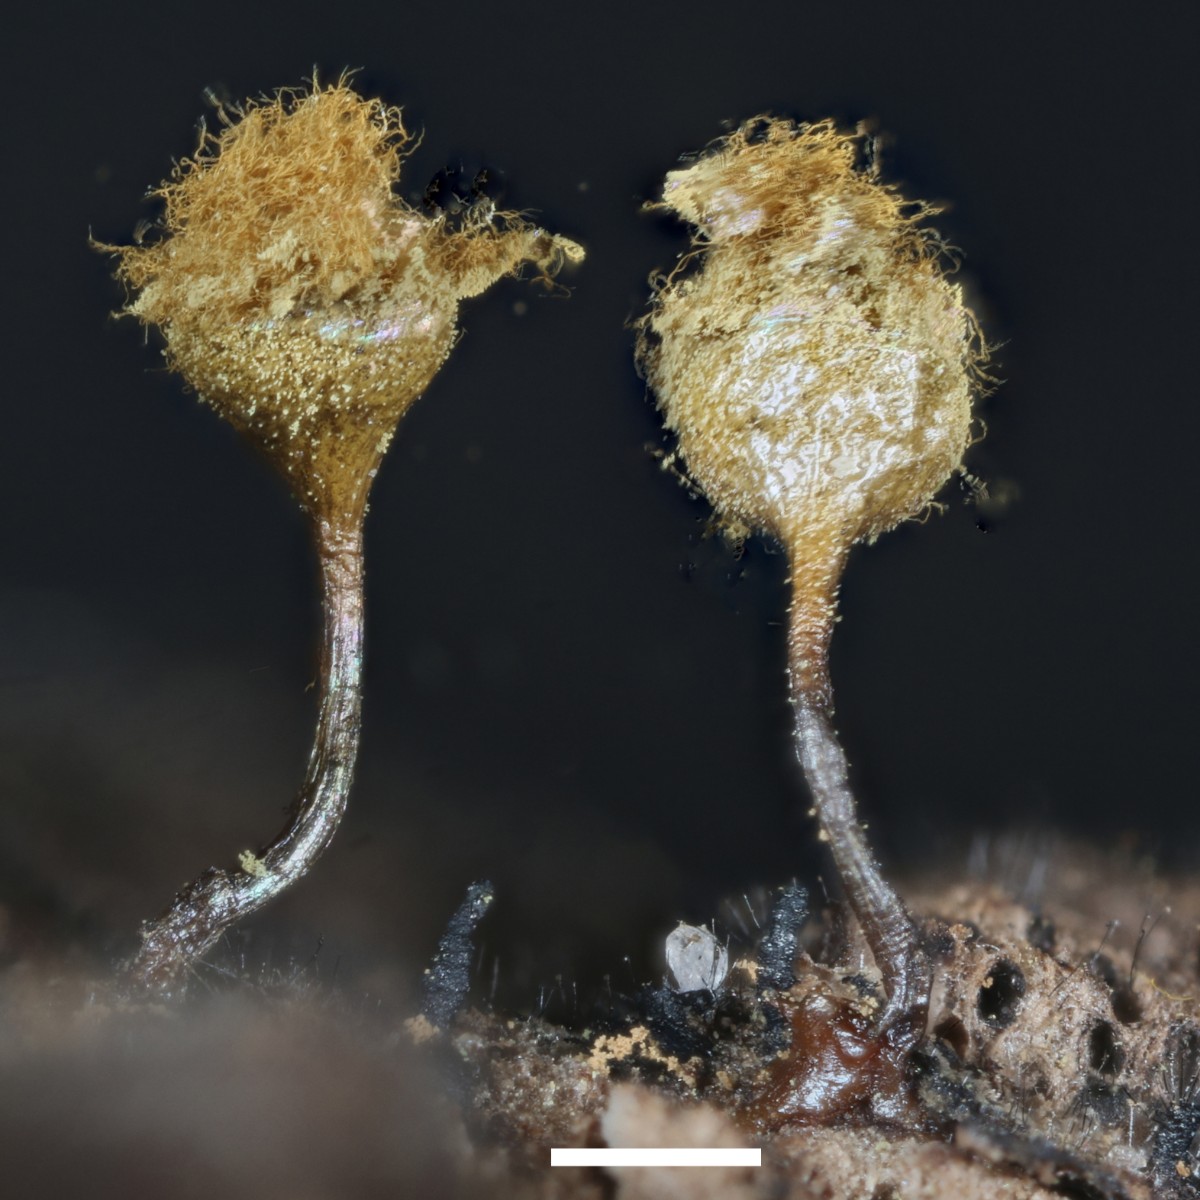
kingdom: Protozoa
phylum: Mycetozoa
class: Myxomycetes
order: Trichiales
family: Arcyriaceae
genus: Hemitrichia
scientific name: Hemitrichia decipiens
